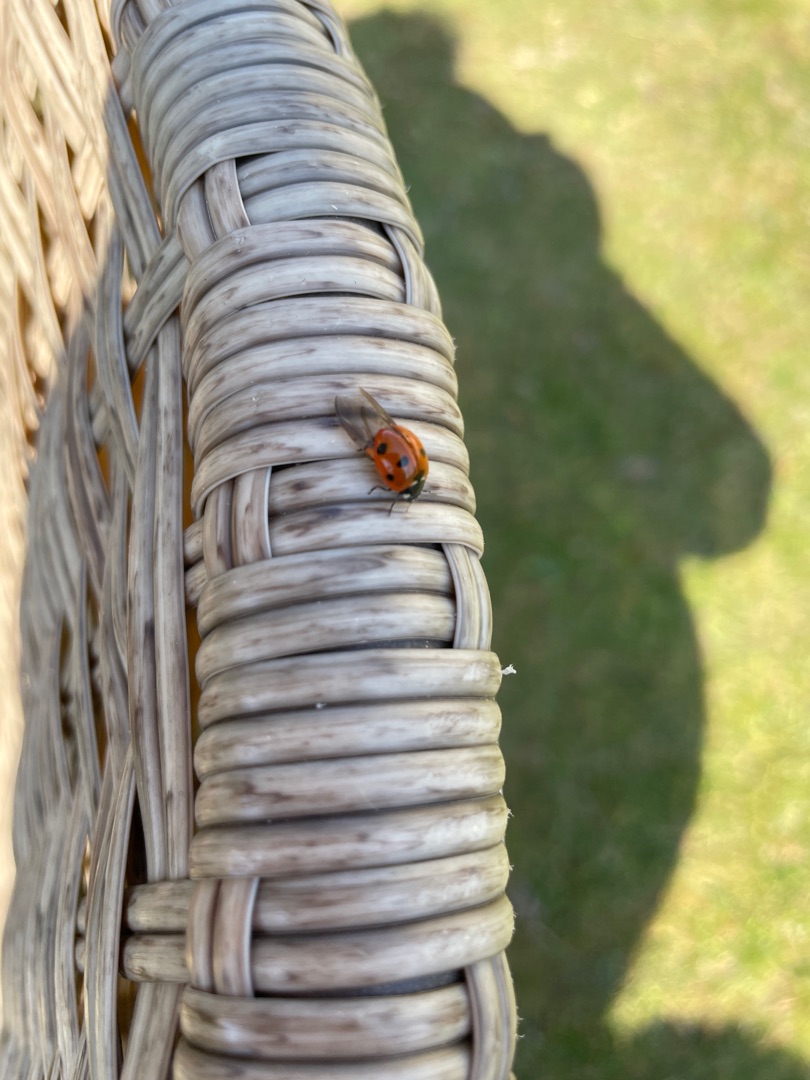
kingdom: Animalia
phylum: Arthropoda
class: Insecta
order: Coleoptera
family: Coccinellidae
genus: Coccinella
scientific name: Coccinella septempunctata
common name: Syvplettet mariehøne
